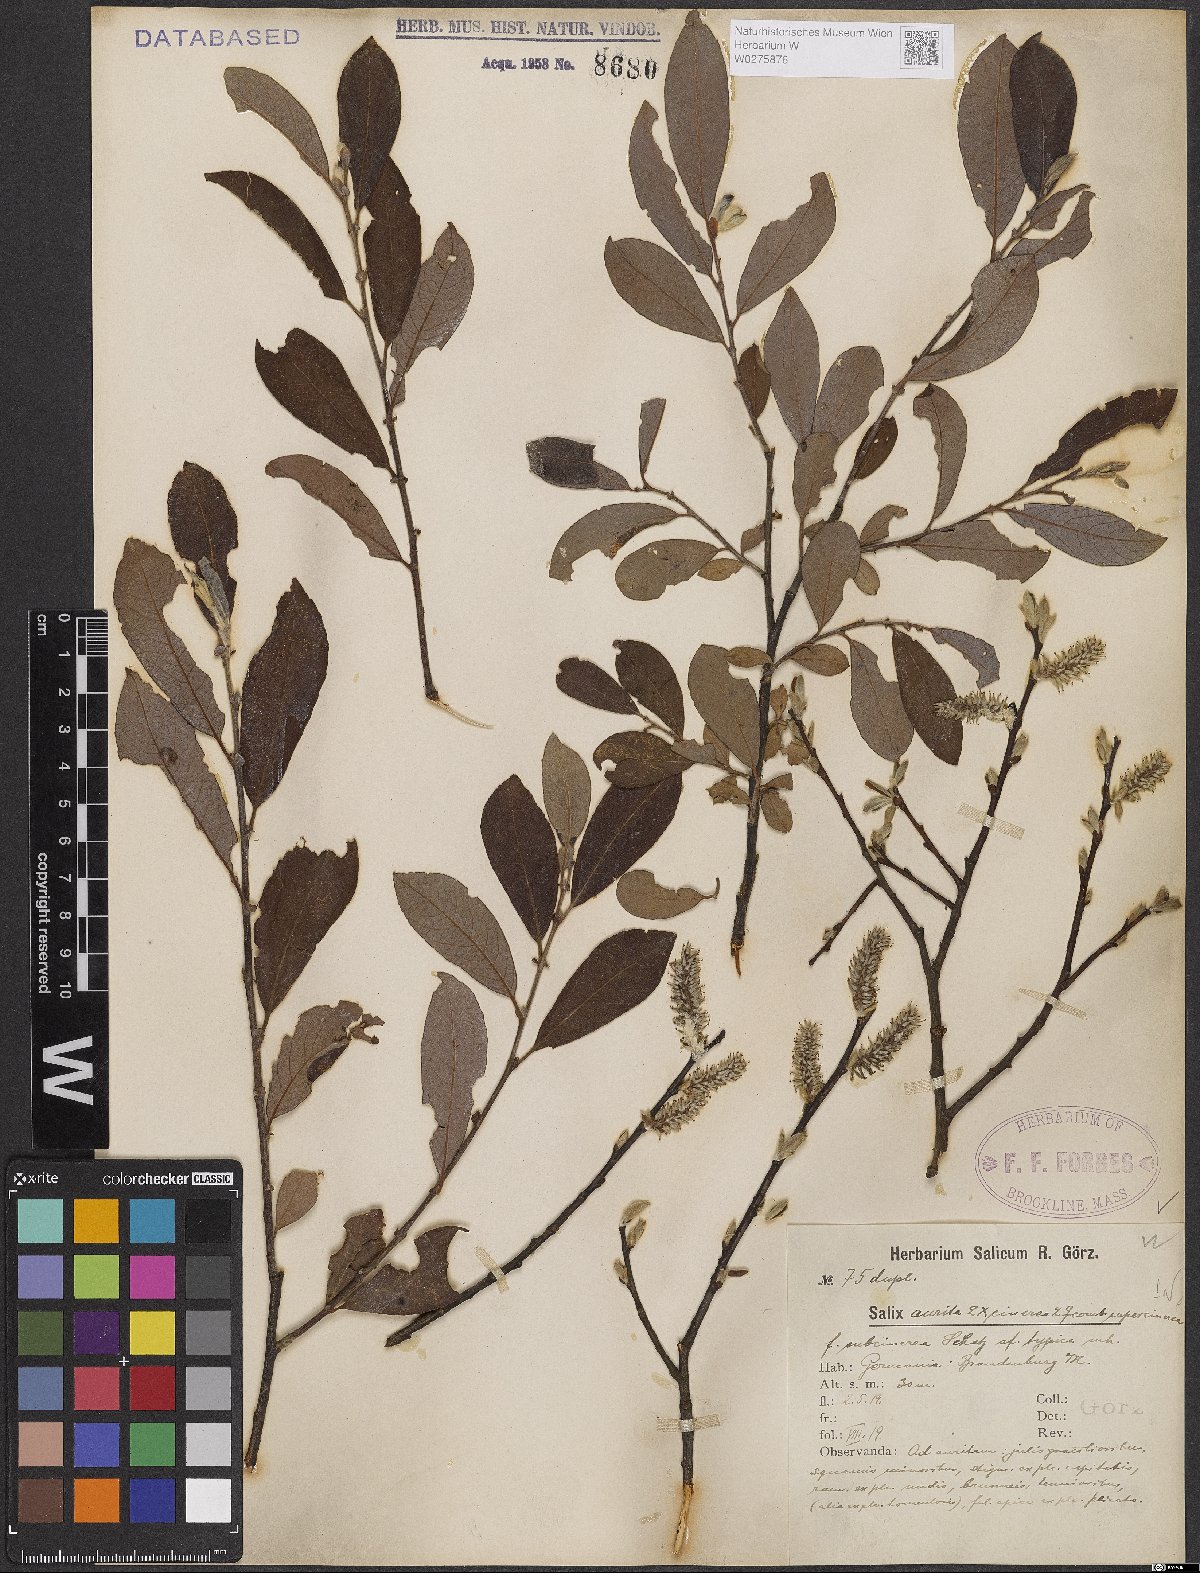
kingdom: Plantae
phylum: Tracheophyta
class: Magnoliopsida
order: Malpighiales
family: Salicaceae
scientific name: Salicaceae
